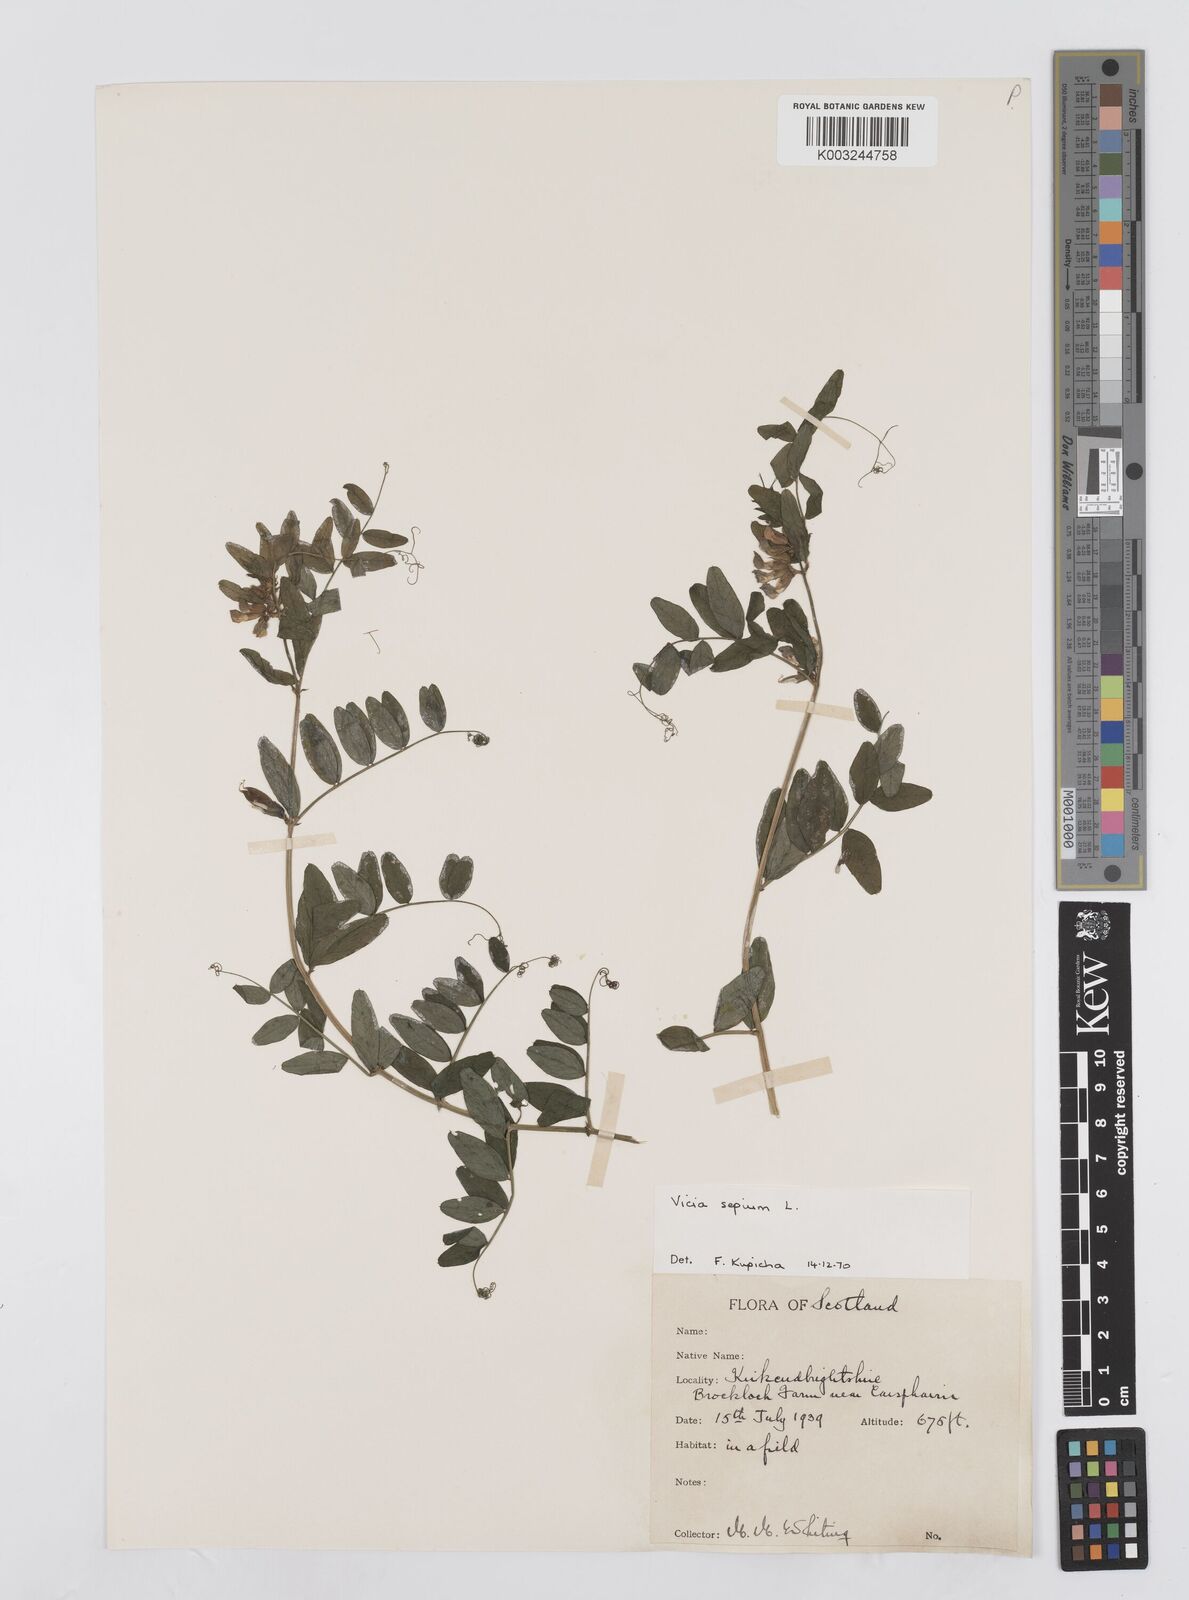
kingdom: Plantae
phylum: Tracheophyta
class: Magnoliopsida
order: Fabales
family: Fabaceae
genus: Vicia
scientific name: Vicia
